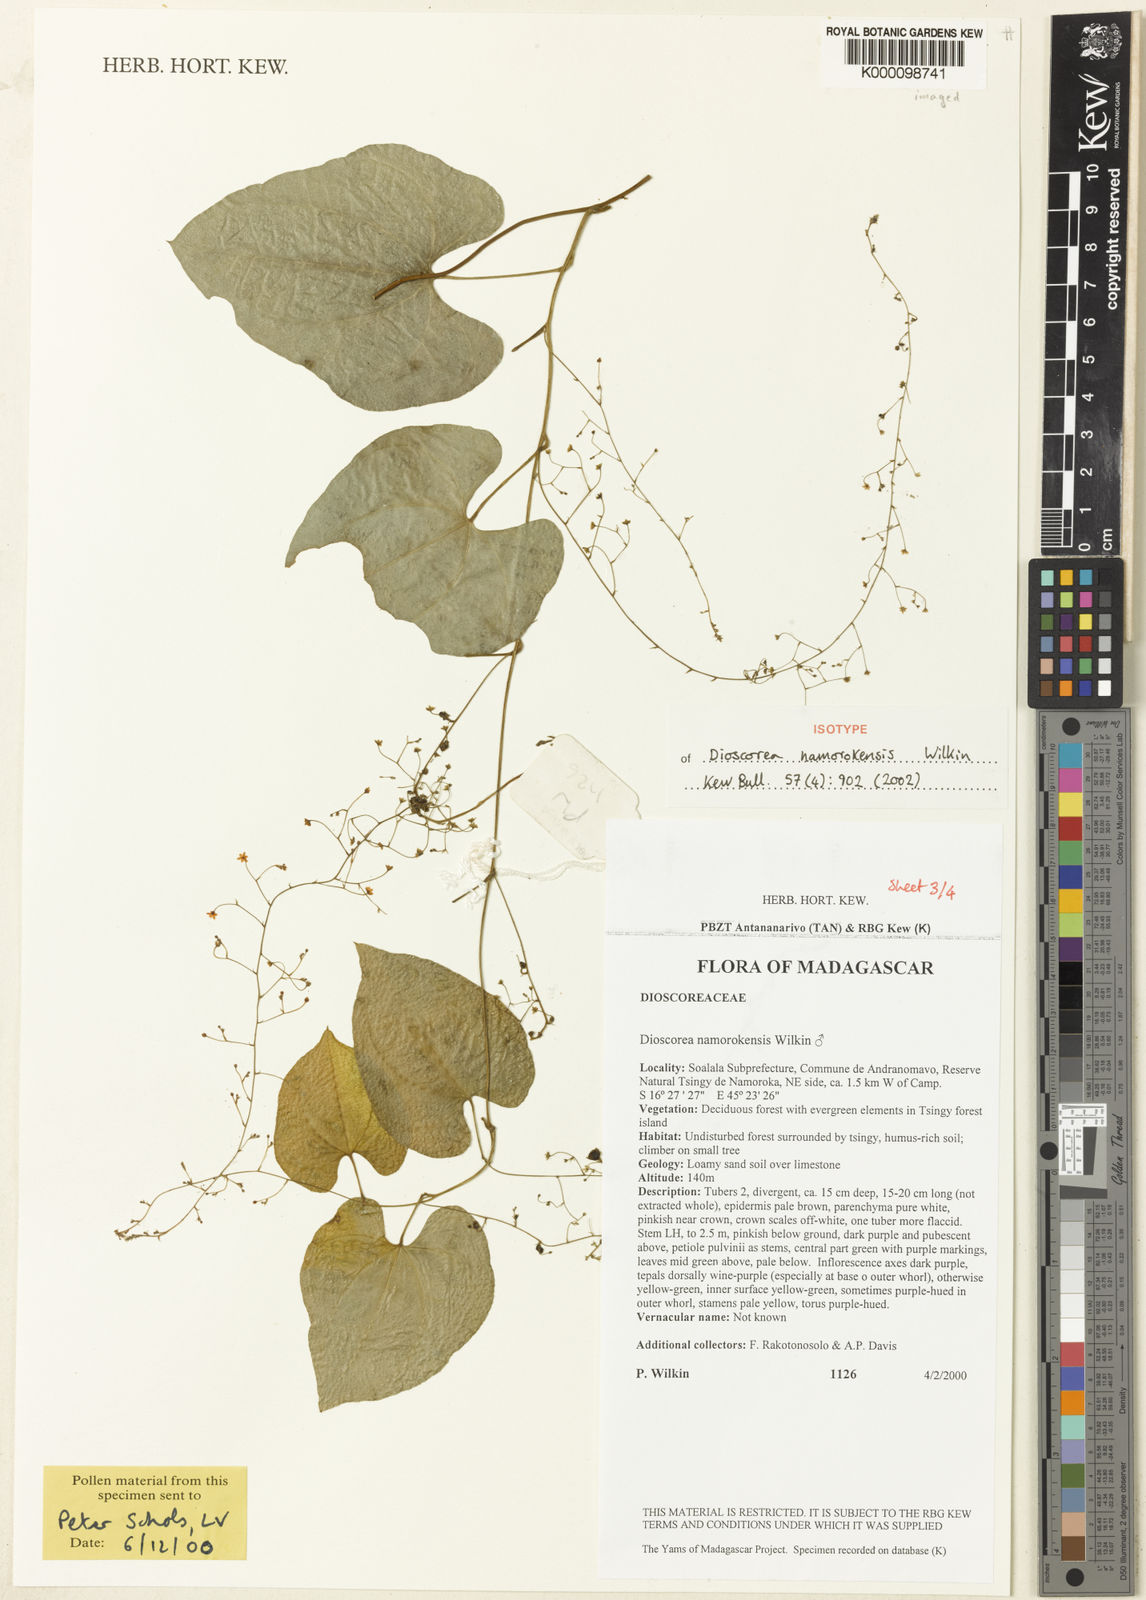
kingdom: Plantae
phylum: Tracheophyta
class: Liliopsida
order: Dioscoreales
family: Dioscoreaceae
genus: Dioscorea
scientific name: Dioscorea namorokensis
